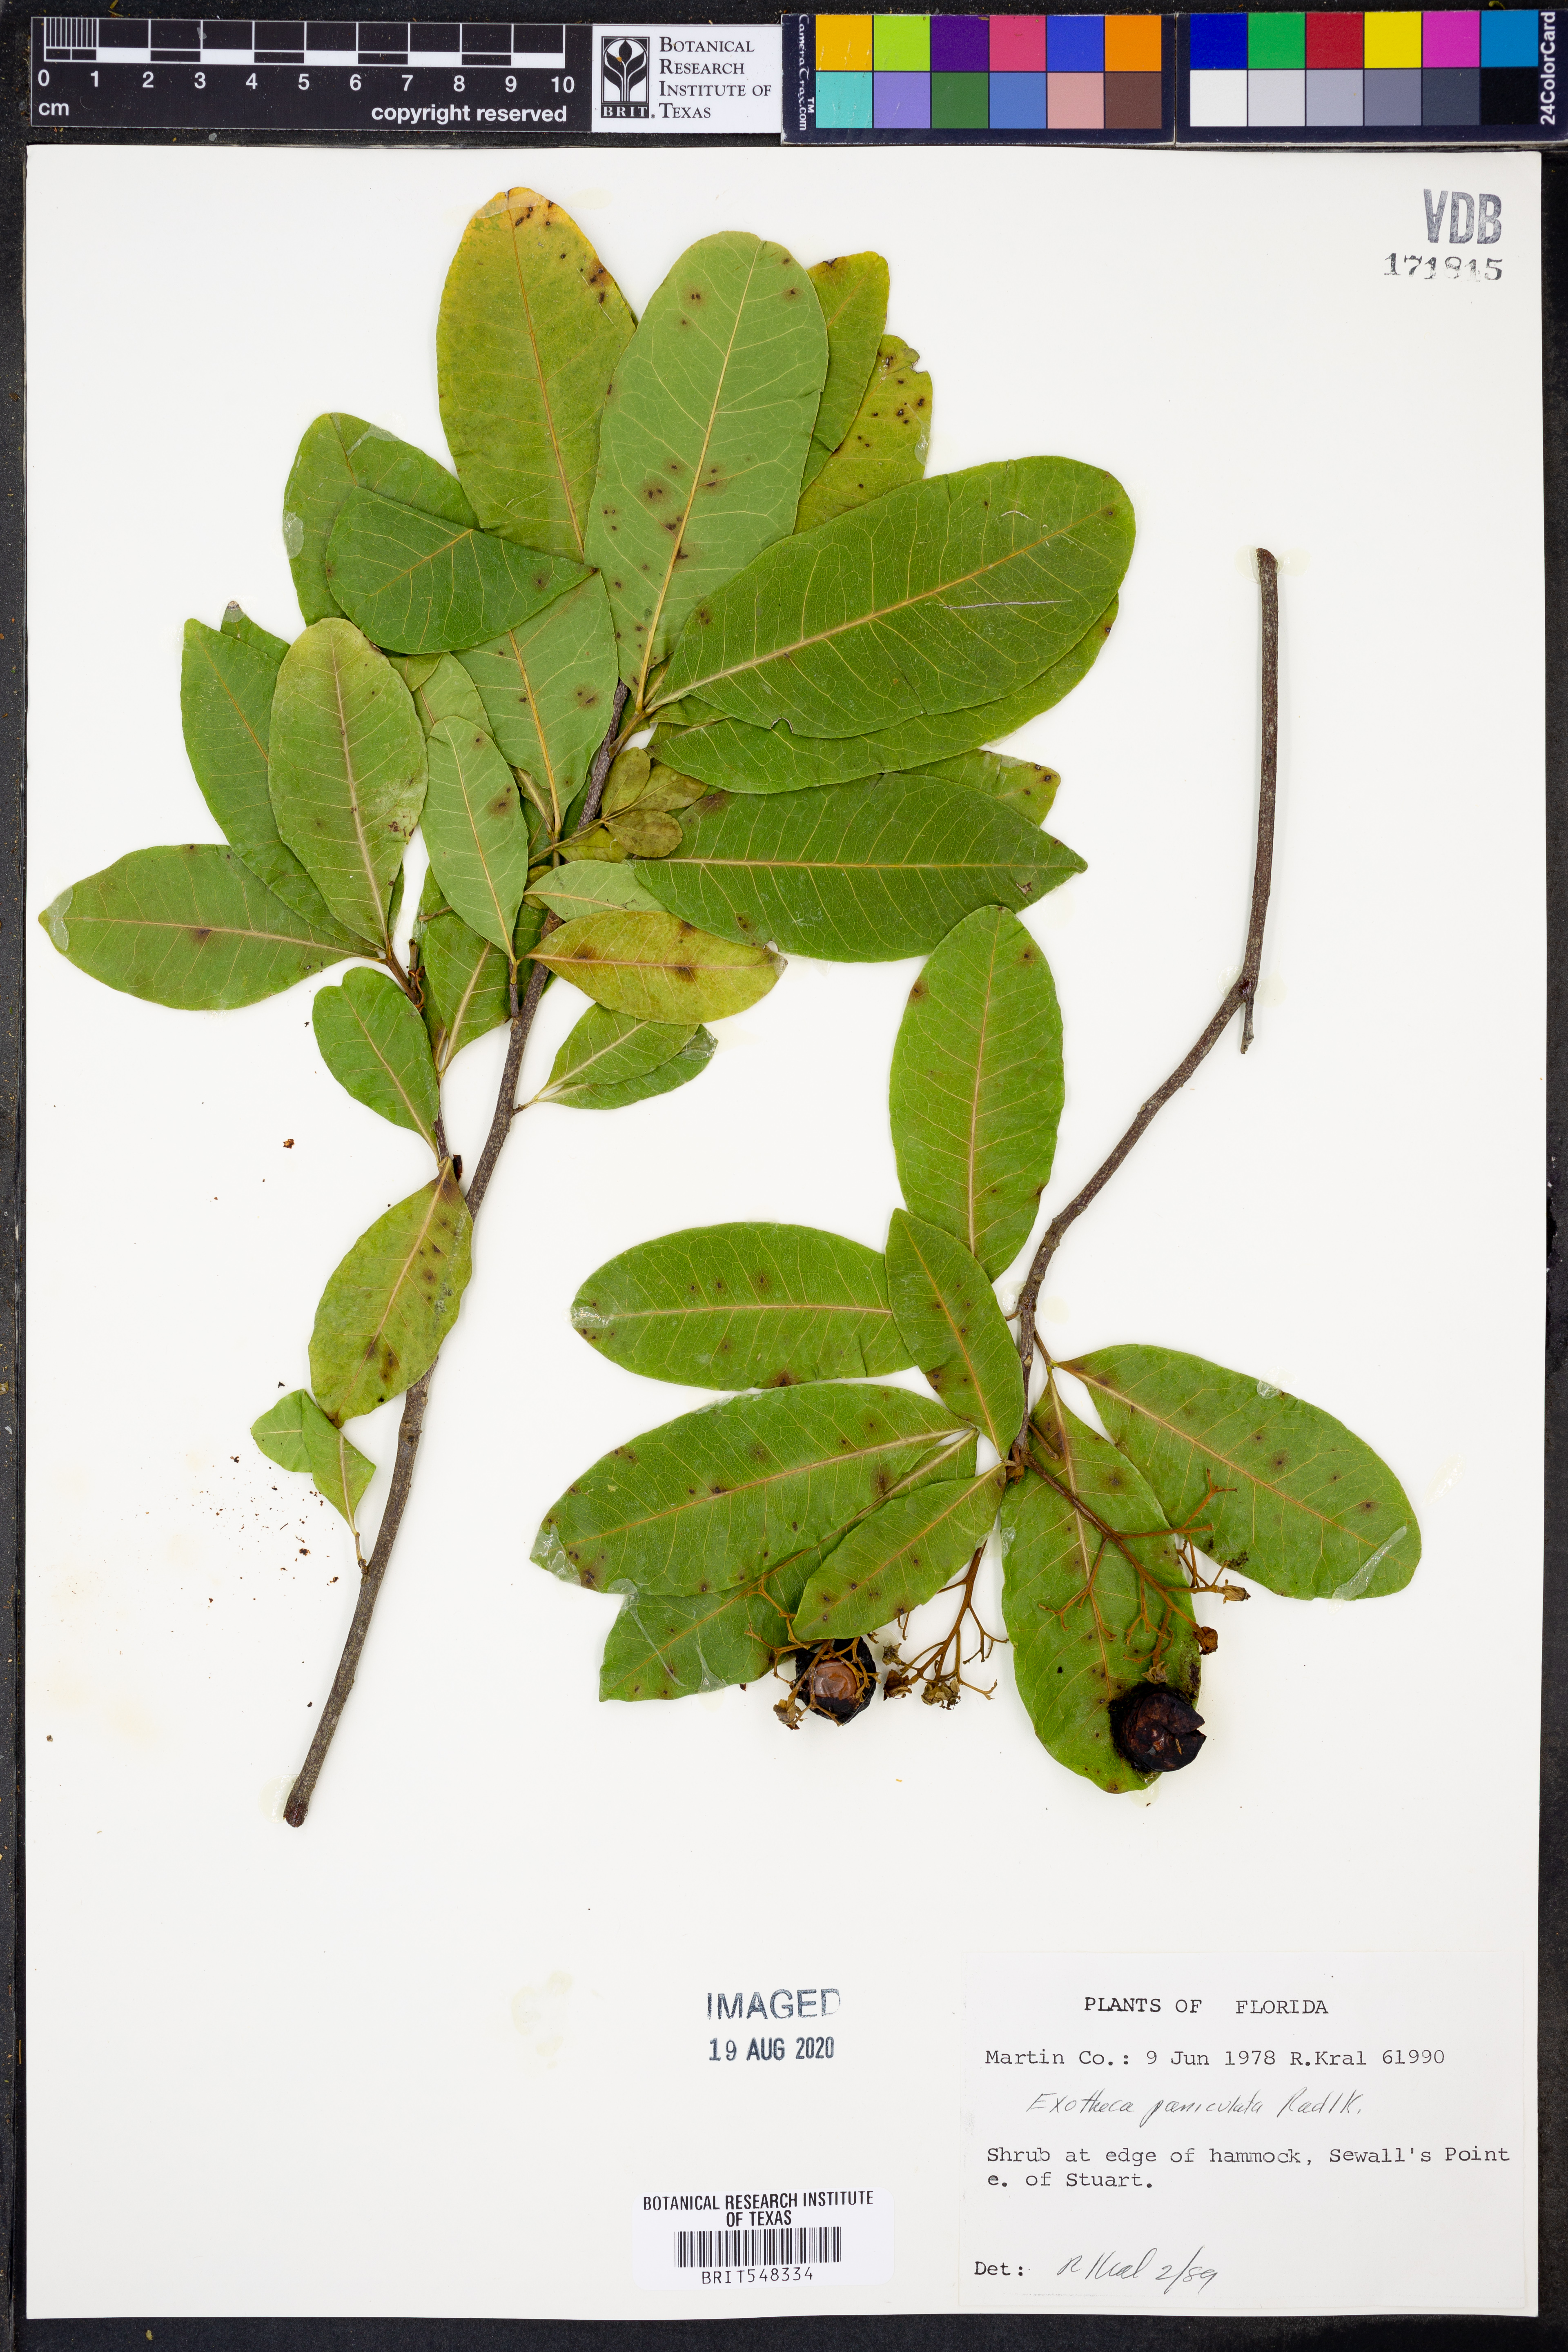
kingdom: Plantae
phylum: Tracheophyta
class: Magnoliopsida
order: Sapindales
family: Sapindaceae
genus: Exothea
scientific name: Exothea paniculata
